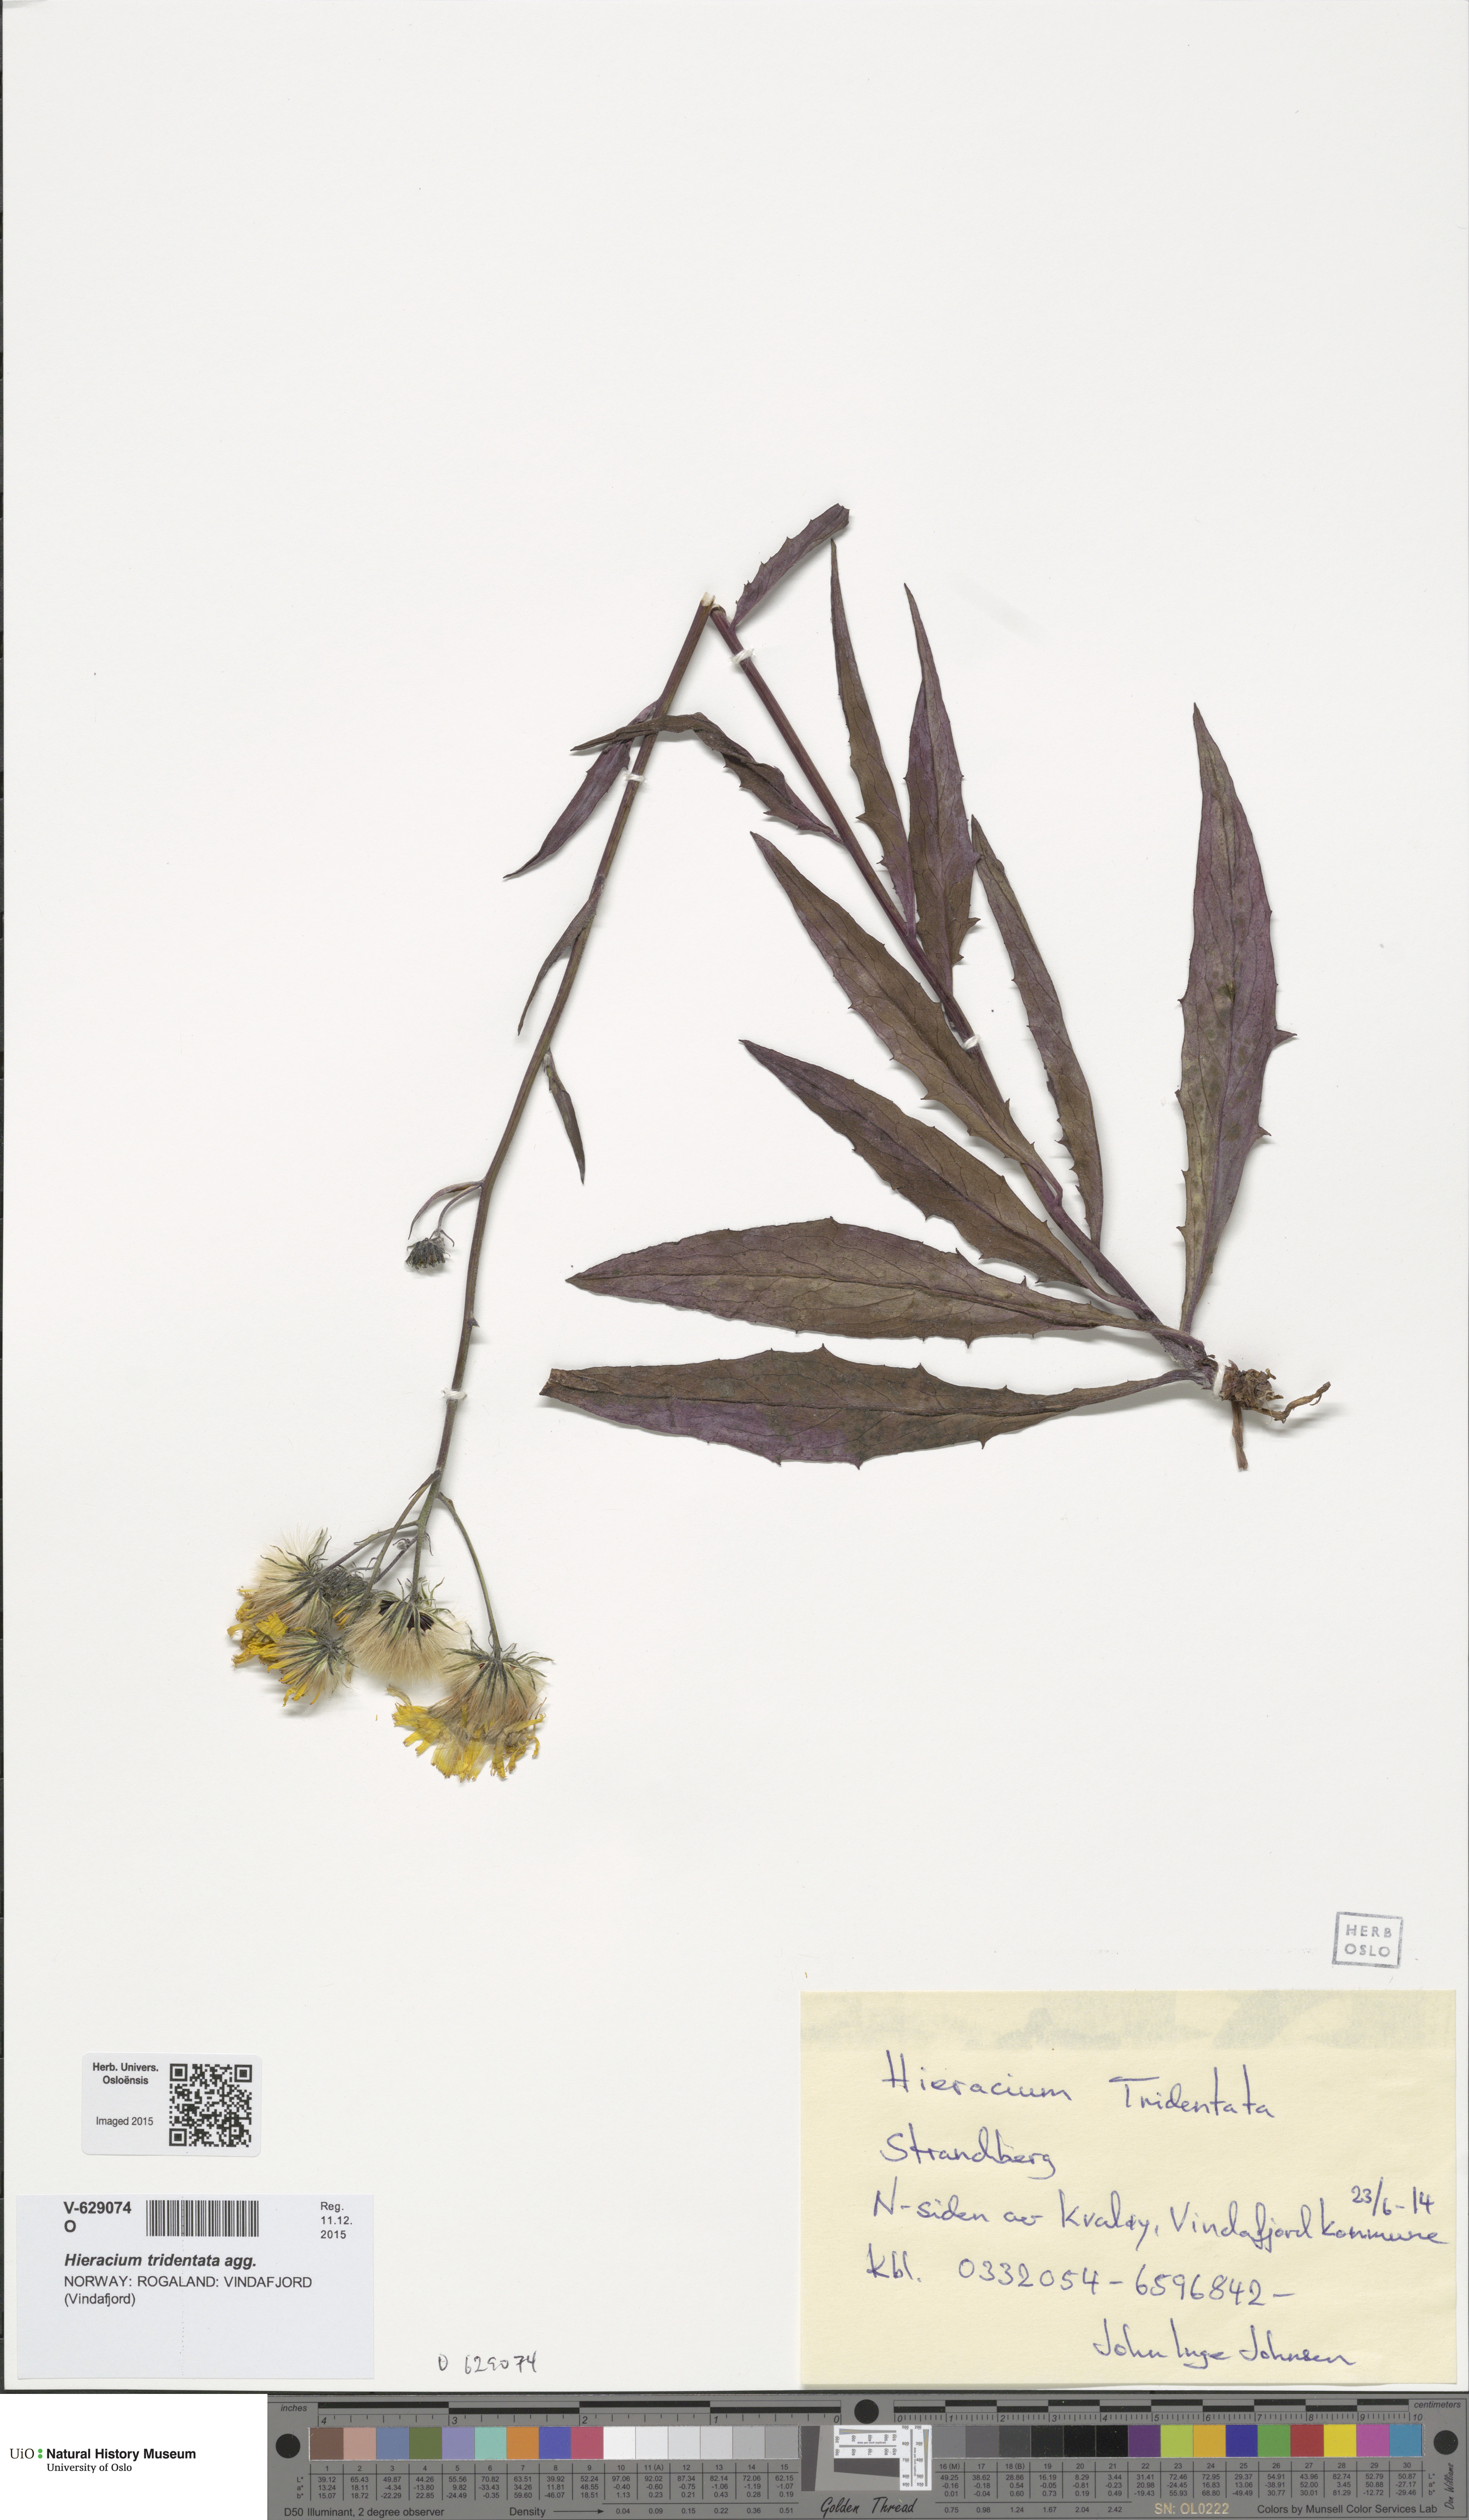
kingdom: Plantae
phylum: Tracheophyta
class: Magnoliopsida
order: Asterales
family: Asteraceae
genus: Hieracium
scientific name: Hieracium tridentatum
